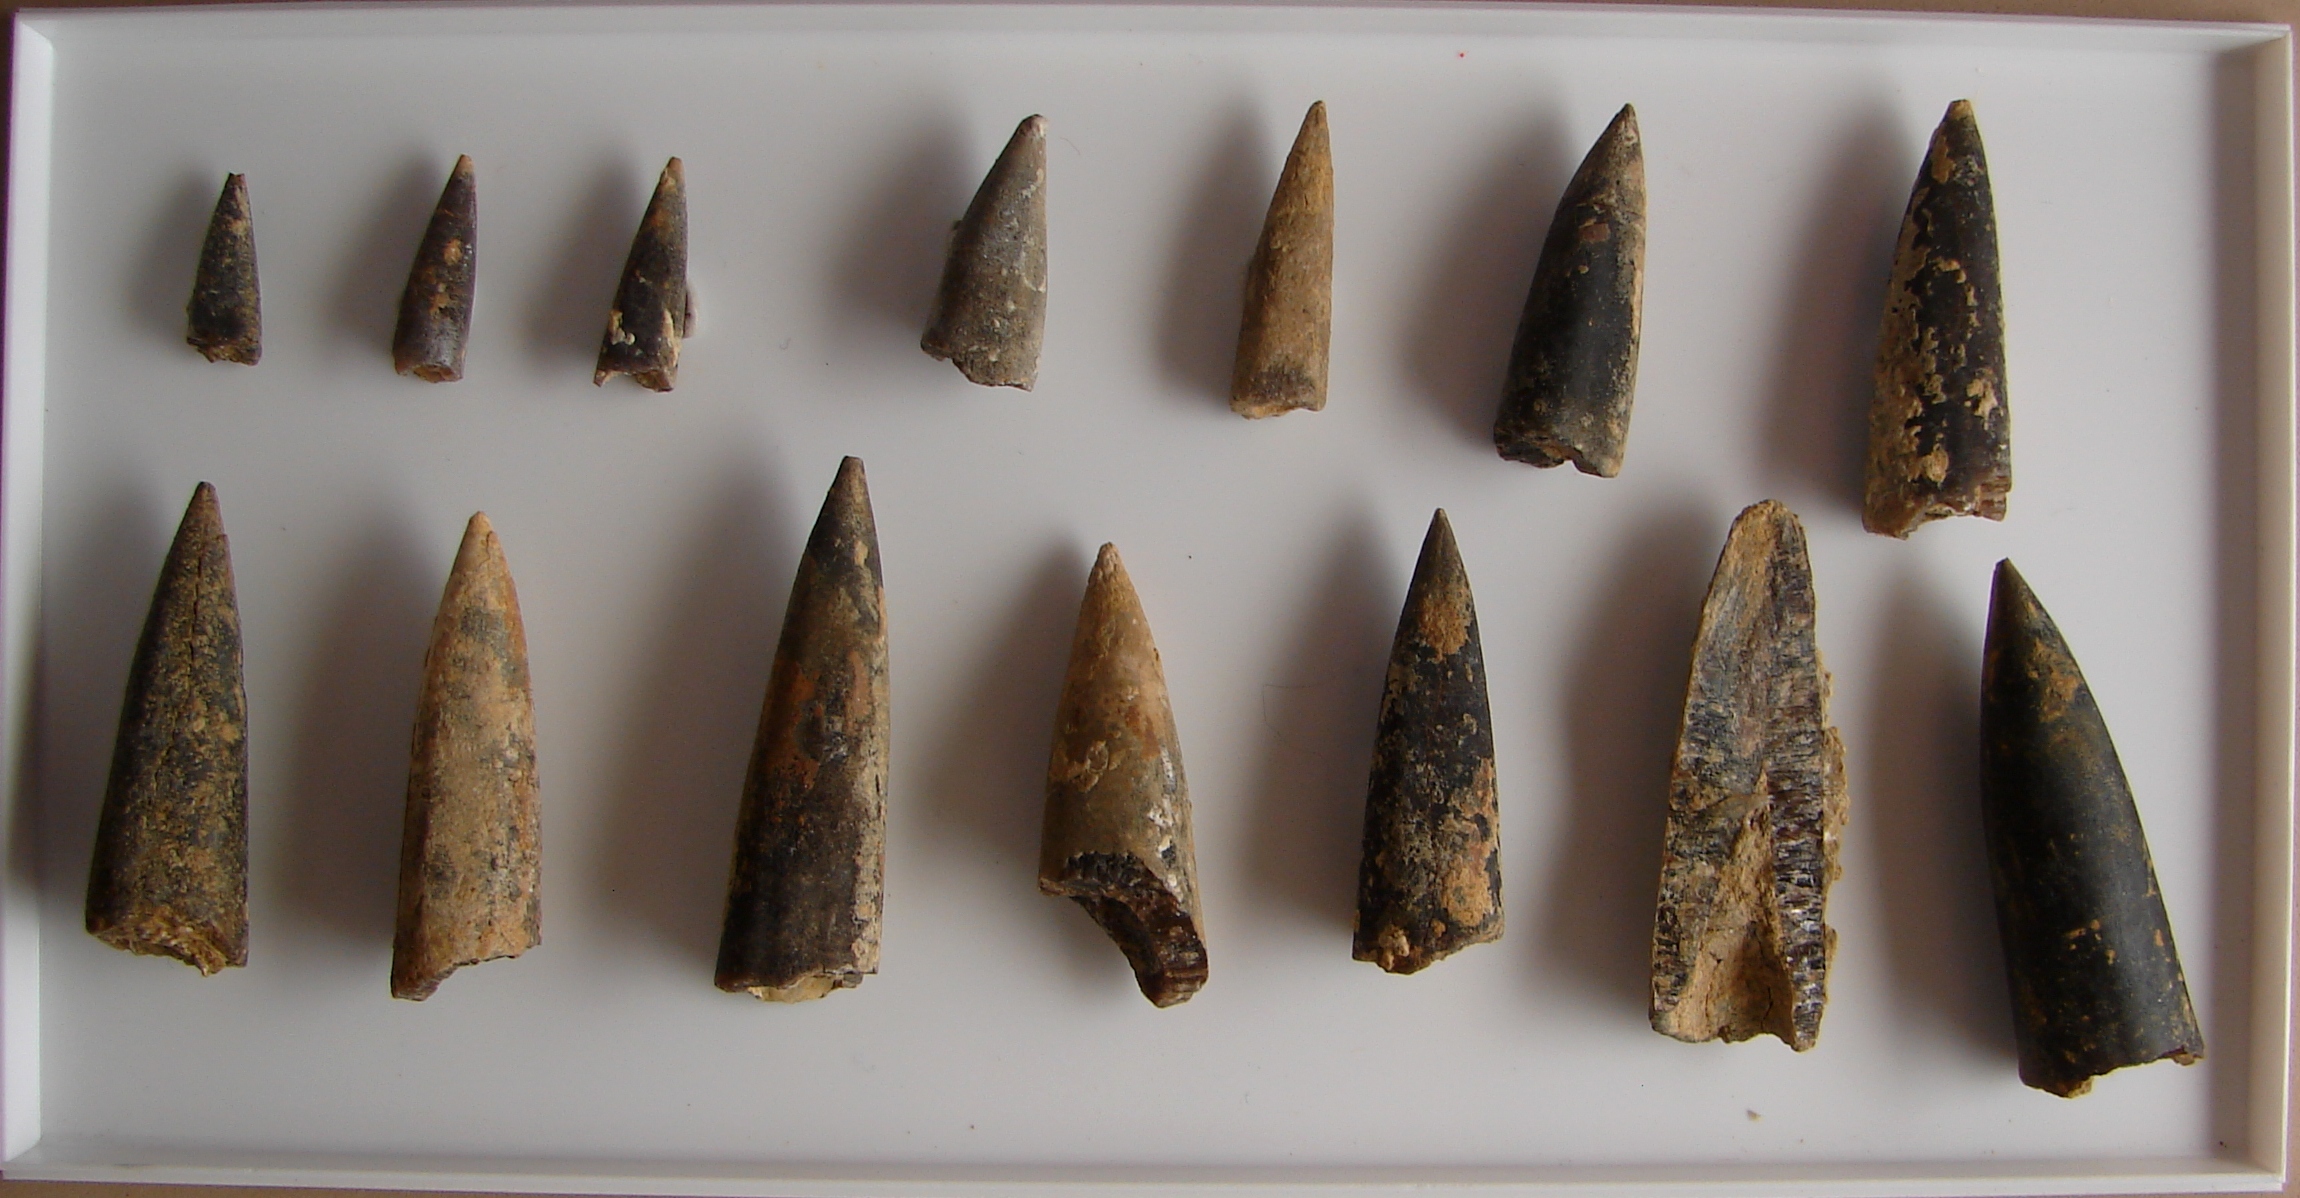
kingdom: Animalia
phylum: Mollusca
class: Cephalopoda
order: Belemnitida
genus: Nannobelus
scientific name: Nannobelus
